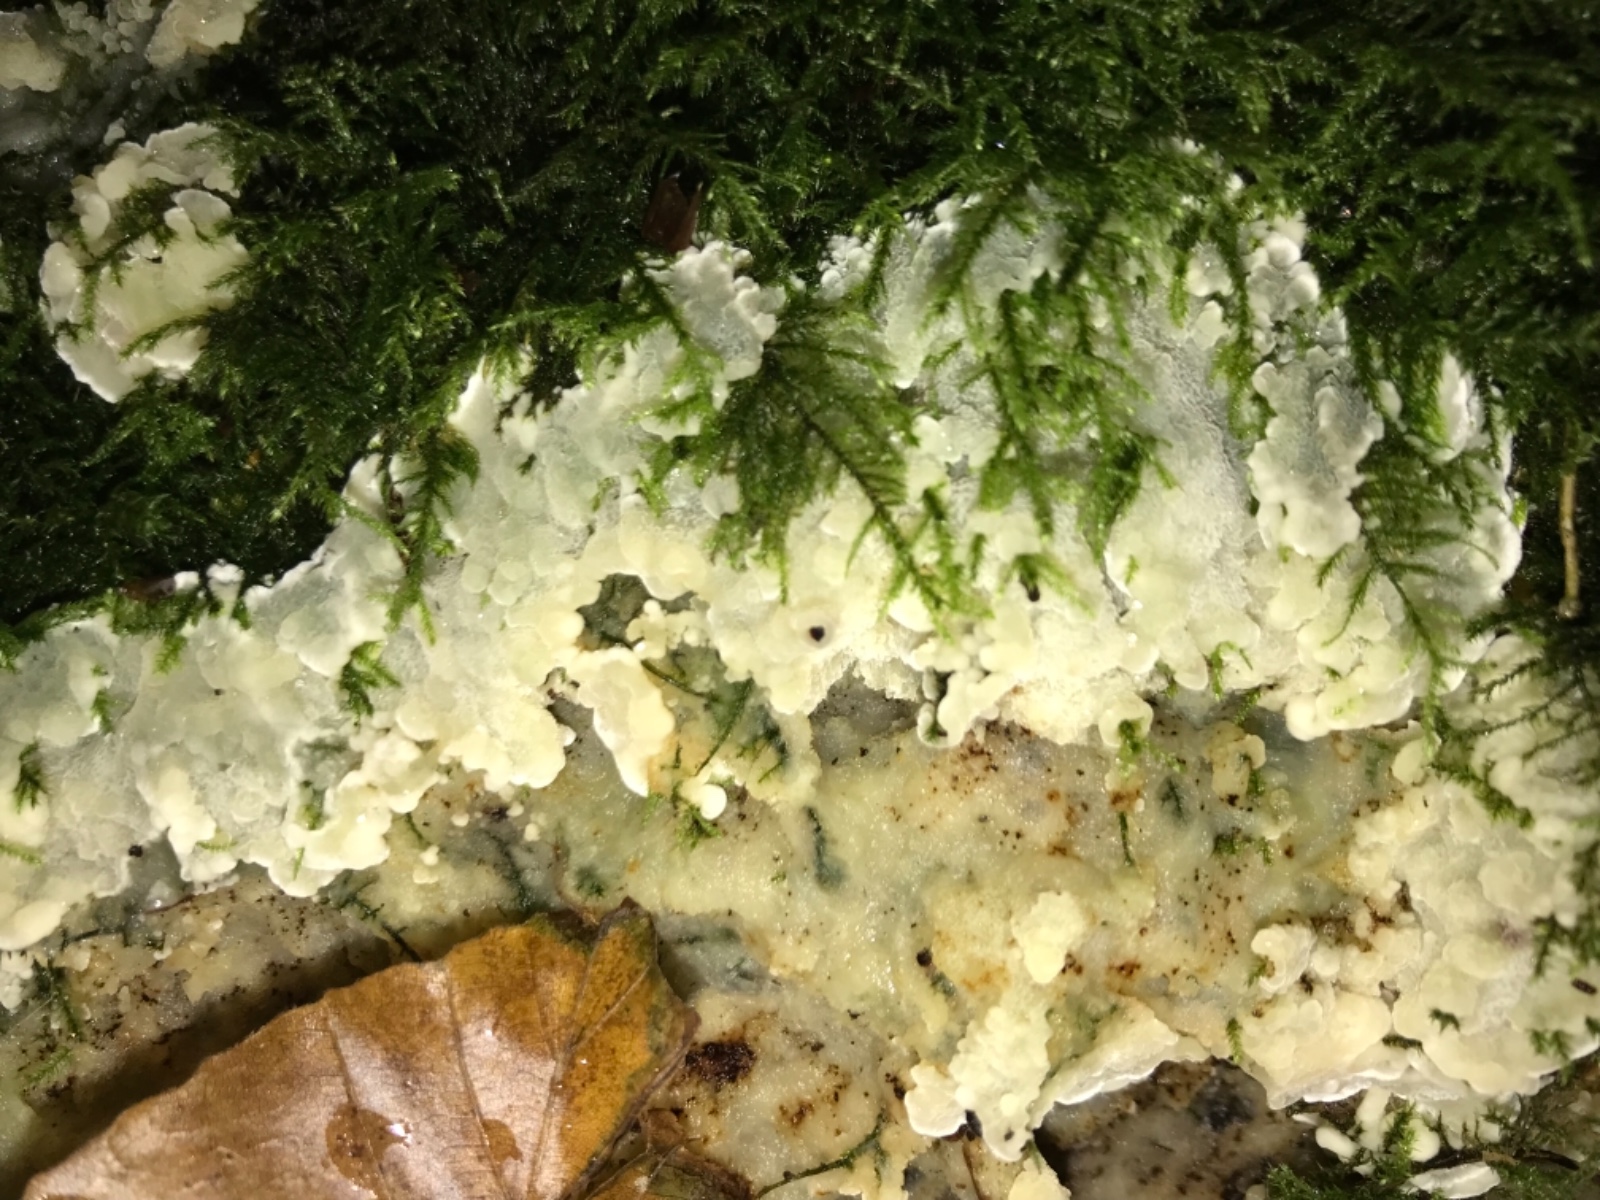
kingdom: Fungi
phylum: Basidiomycota
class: Agaricomycetes
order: Polyporales
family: Meruliaceae
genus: Physisporinus
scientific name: Physisporinus vitreus
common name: mastesvamp
